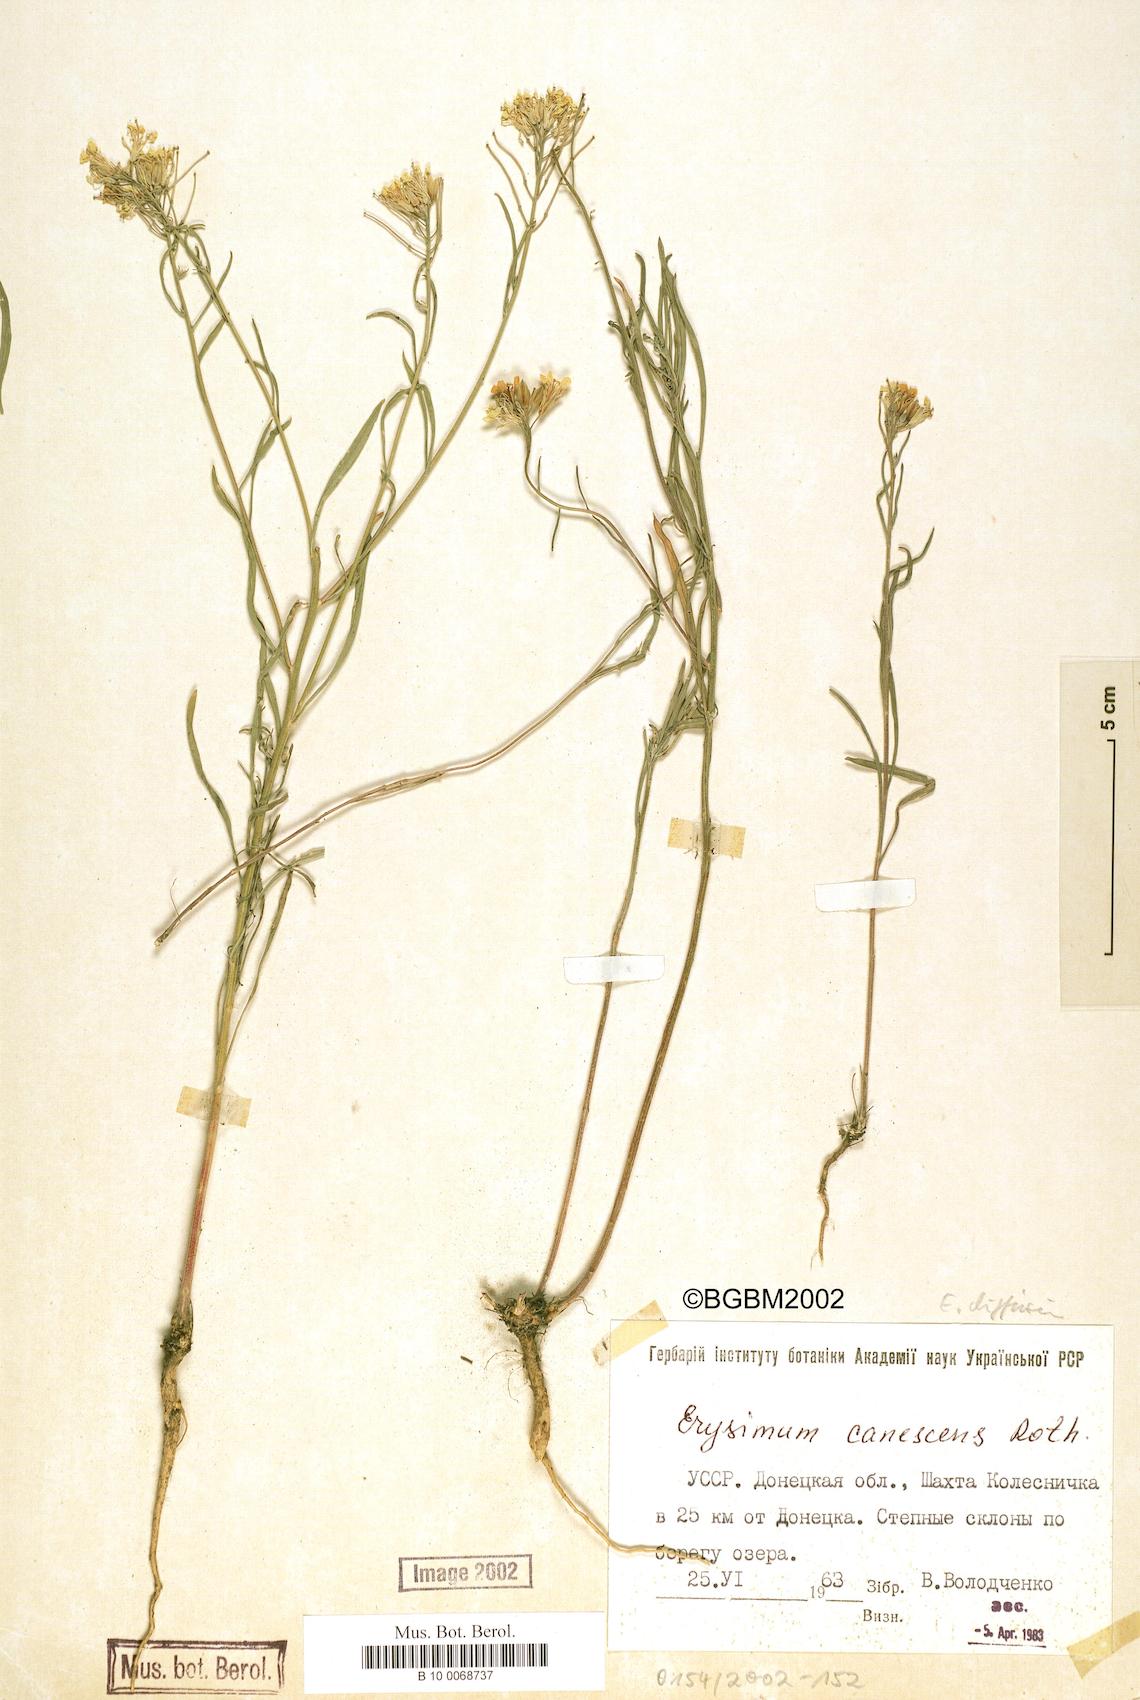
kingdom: Plantae
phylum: Tracheophyta
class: Magnoliopsida
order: Brassicales
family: Brassicaceae
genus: Erysimum
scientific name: Erysimum diffusum
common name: Diffuse wallflower
